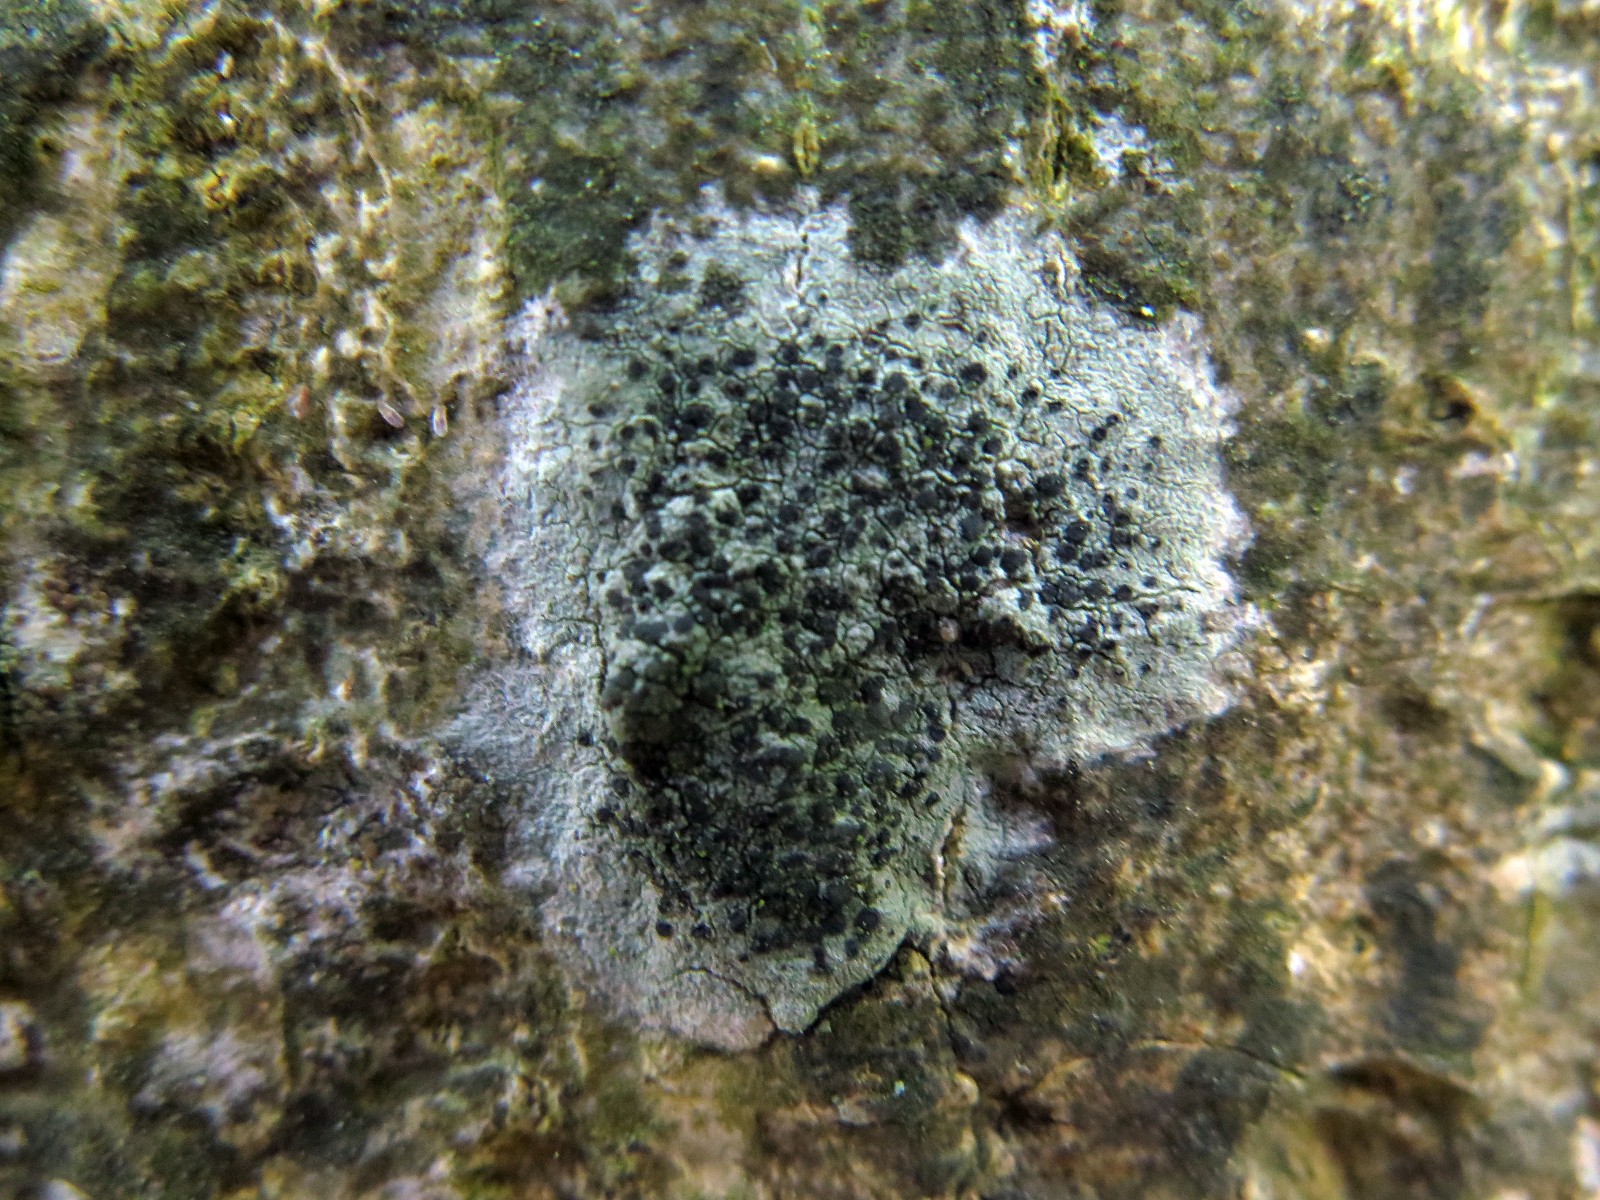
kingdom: Fungi
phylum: Ascomycota
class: Lecanoromycetes
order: Lecanorales
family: Lecanoraceae
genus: Lecidella
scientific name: Lecidella euphorea
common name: vortet skivelav
